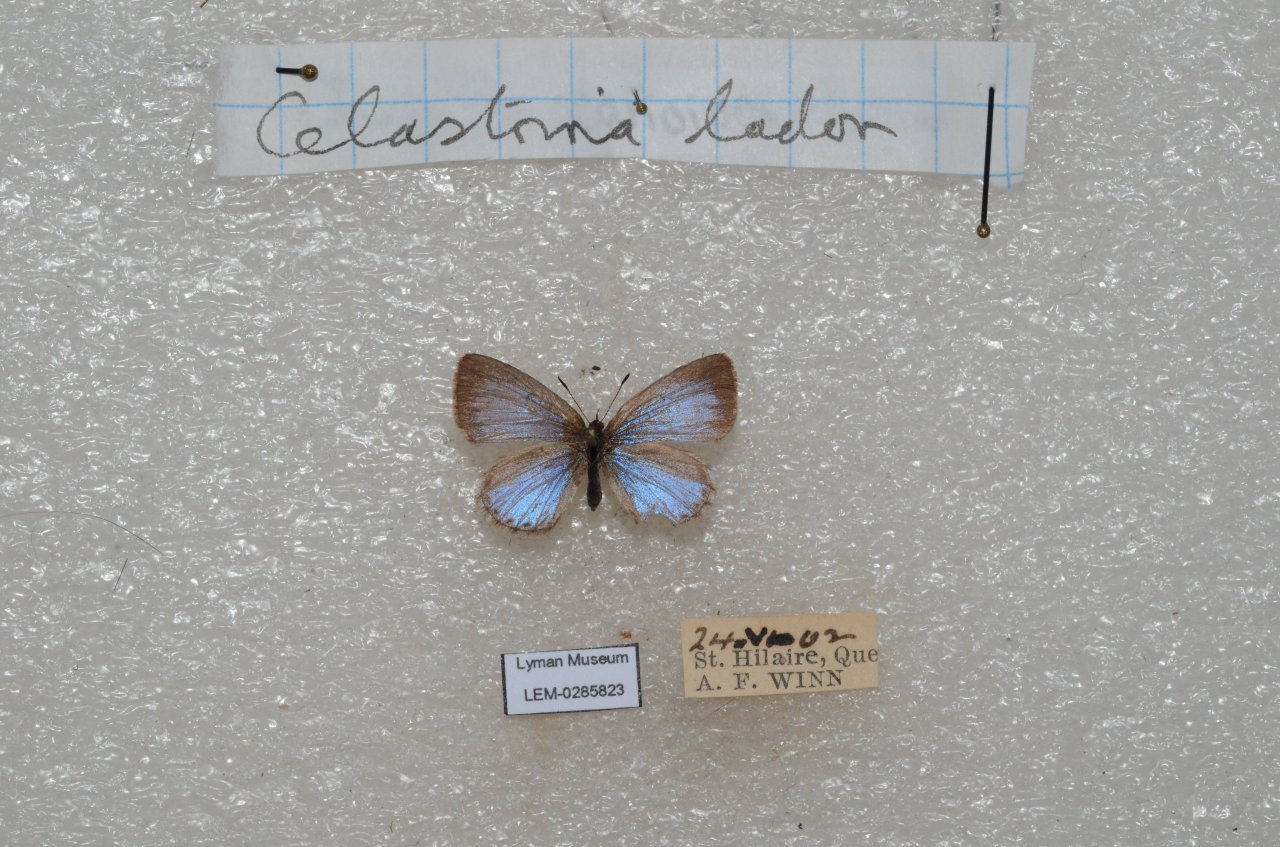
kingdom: Animalia
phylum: Arthropoda
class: Insecta
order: Lepidoptera
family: Lycaenidae
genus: Celastrina
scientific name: Celastrina lucia
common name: Northern Spring Azure
